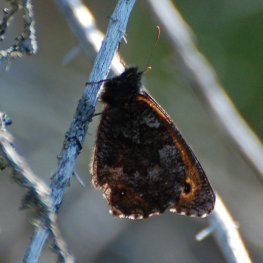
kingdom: Animalia
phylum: Arthropoda
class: Insecta
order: Lepidoptera
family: Nymphalidae
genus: Oeneis
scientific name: Oeneis jutta
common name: Jutta Arctic
